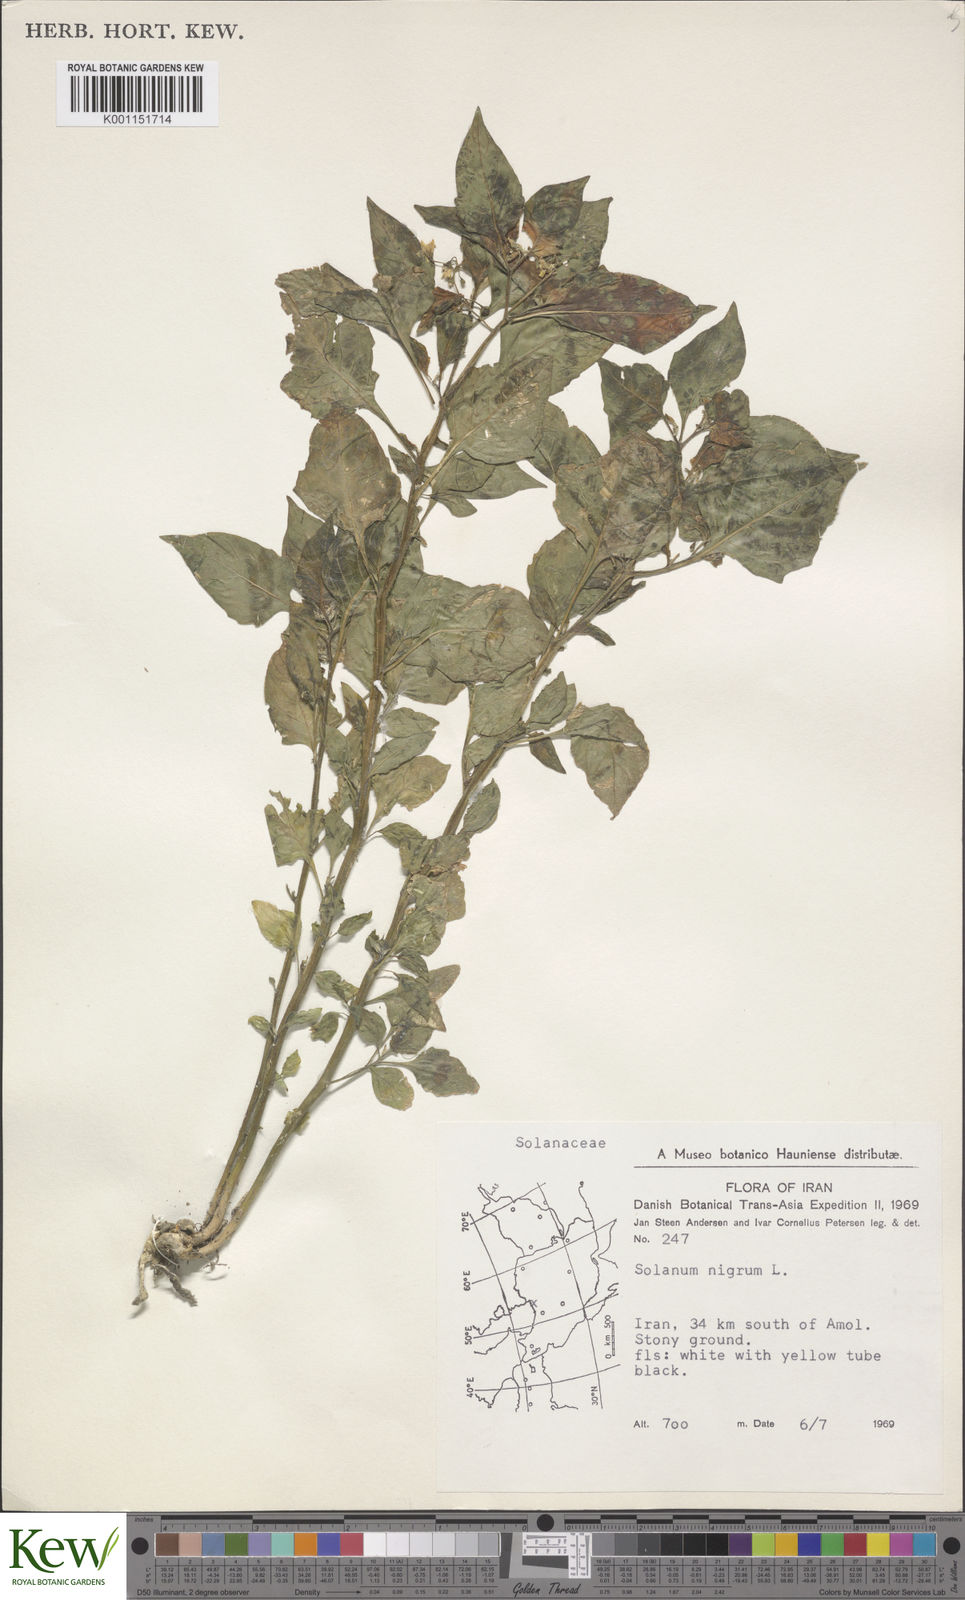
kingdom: Plantae
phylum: Tracheophyta
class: Magnoliopsida
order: Solanales
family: Solanaceae
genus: Solanum
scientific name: Solanum nigrum
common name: Black nightshade
